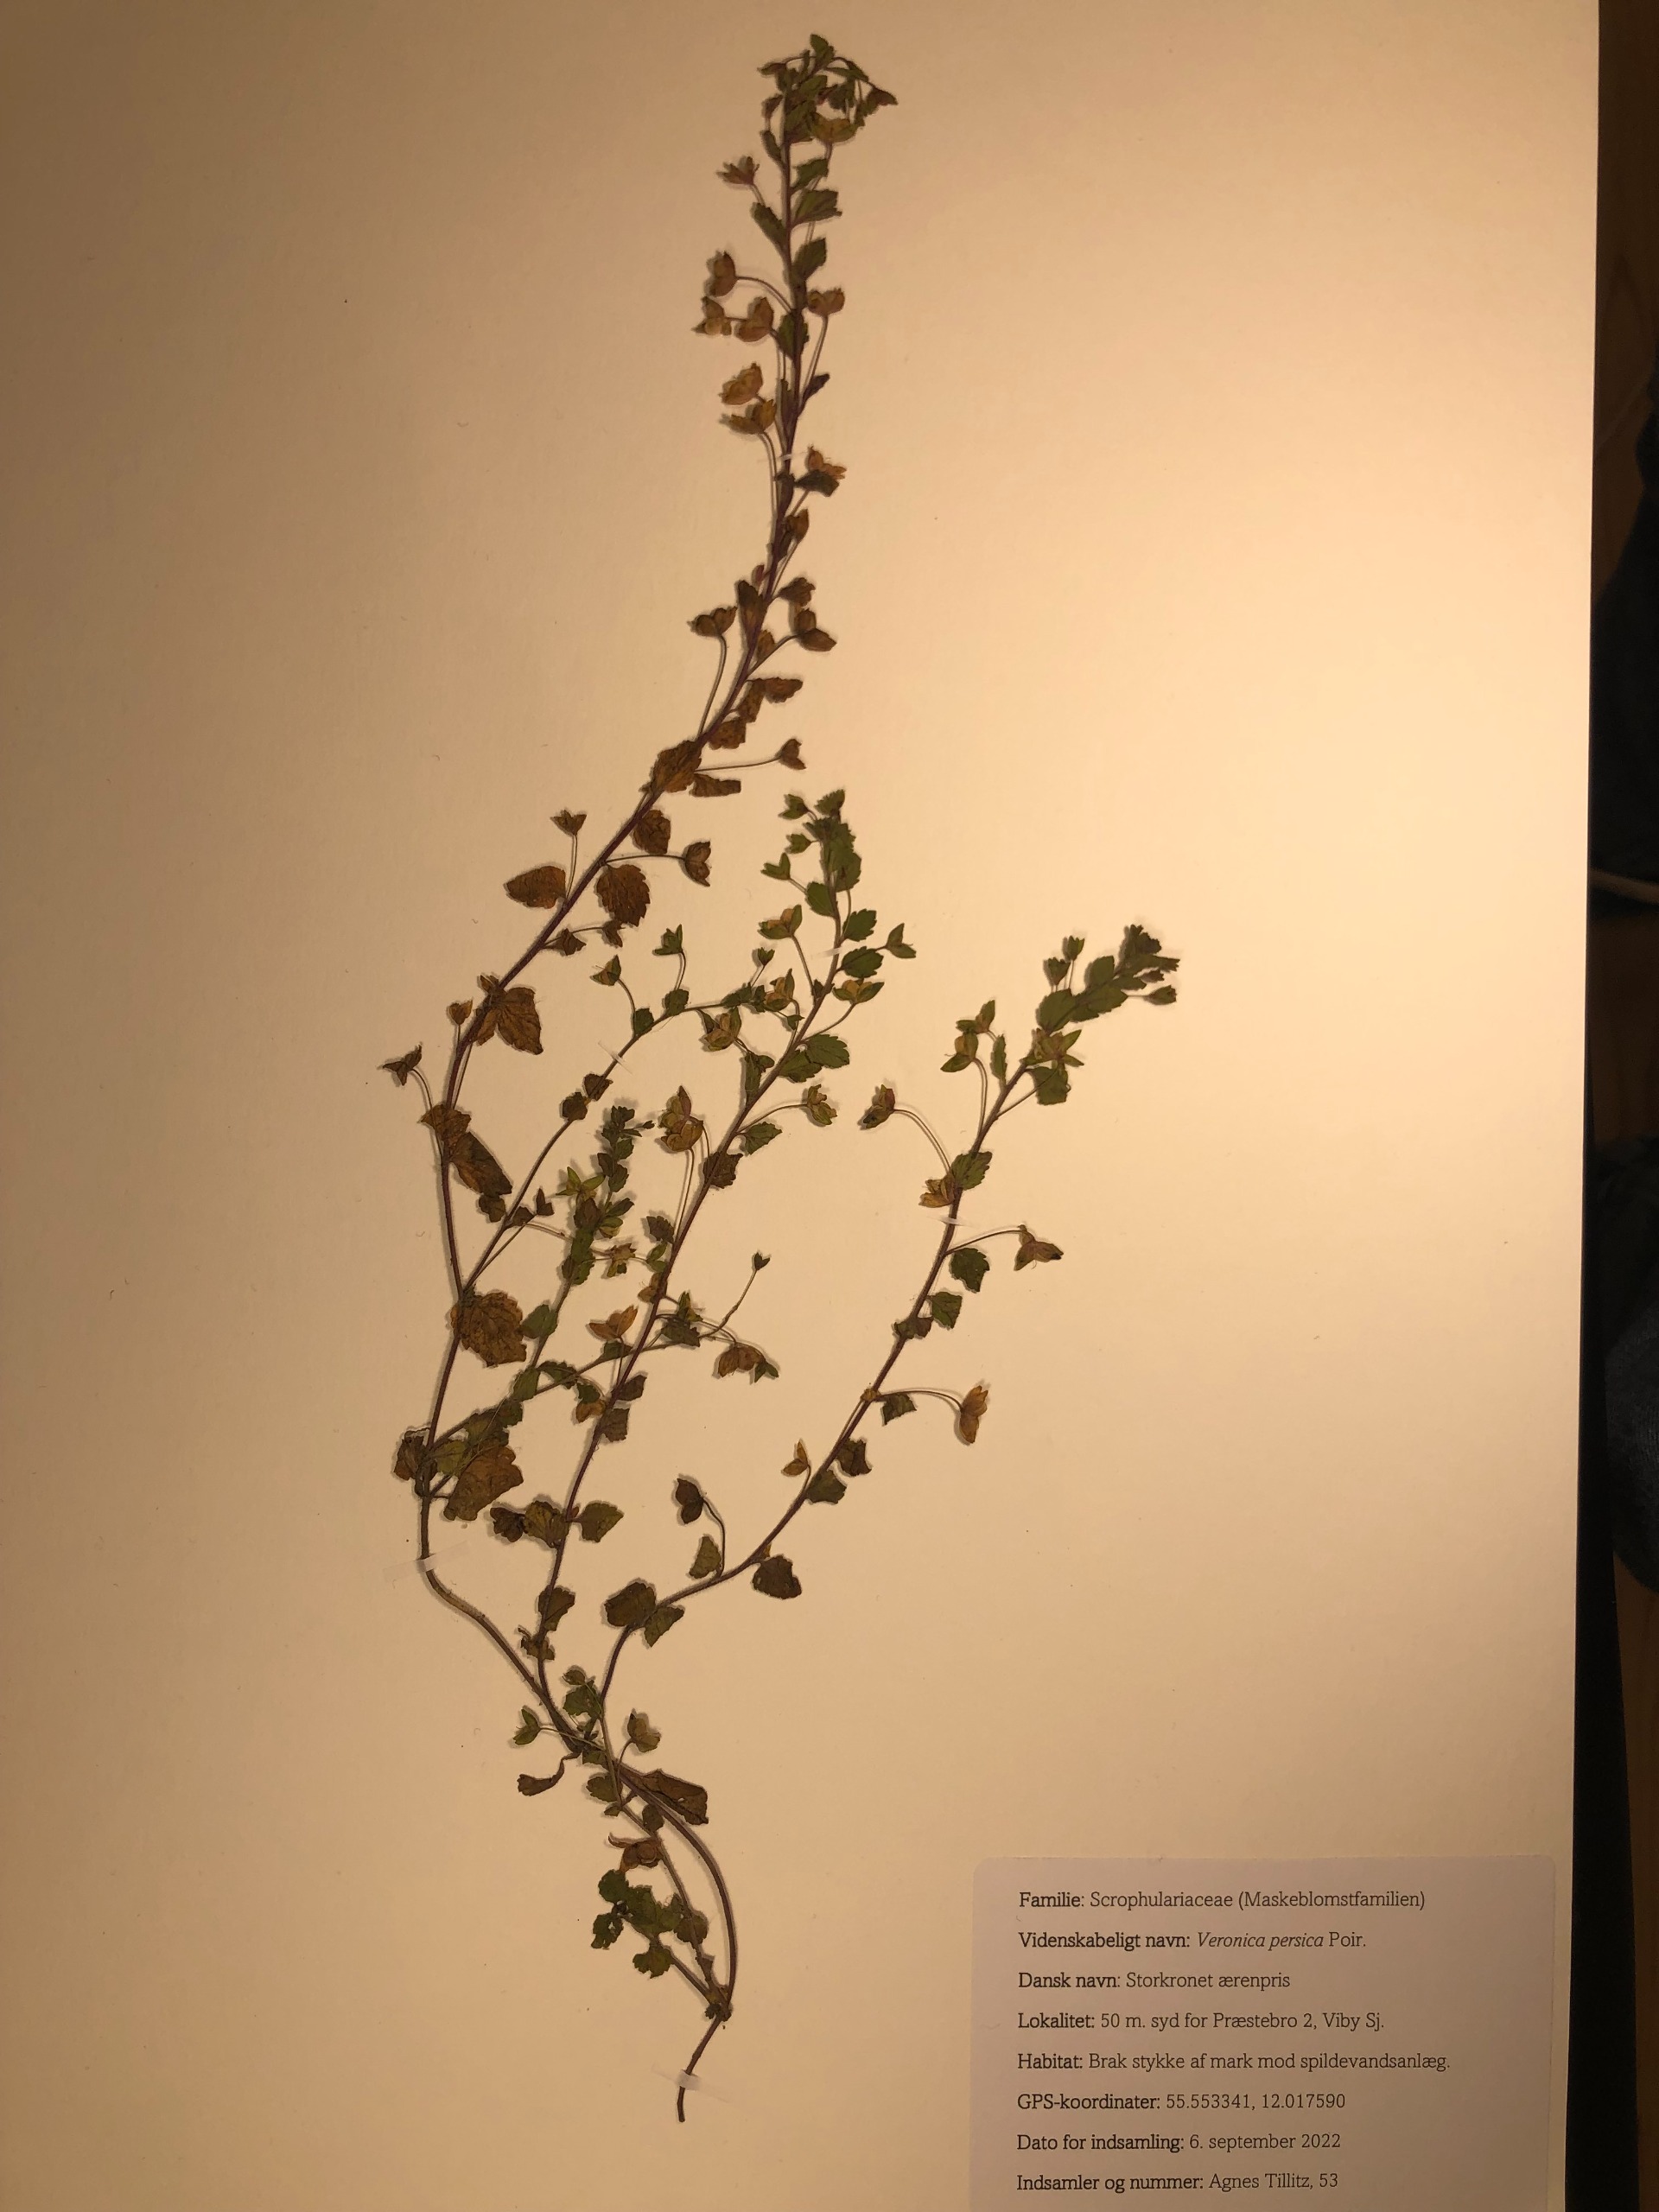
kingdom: Plantae
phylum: Tracheophyta
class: Magnoliopsida
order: Lamiales
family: Plantaginaceae
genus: Veronica
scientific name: Veronica persica
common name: Storkronet ærenpris
